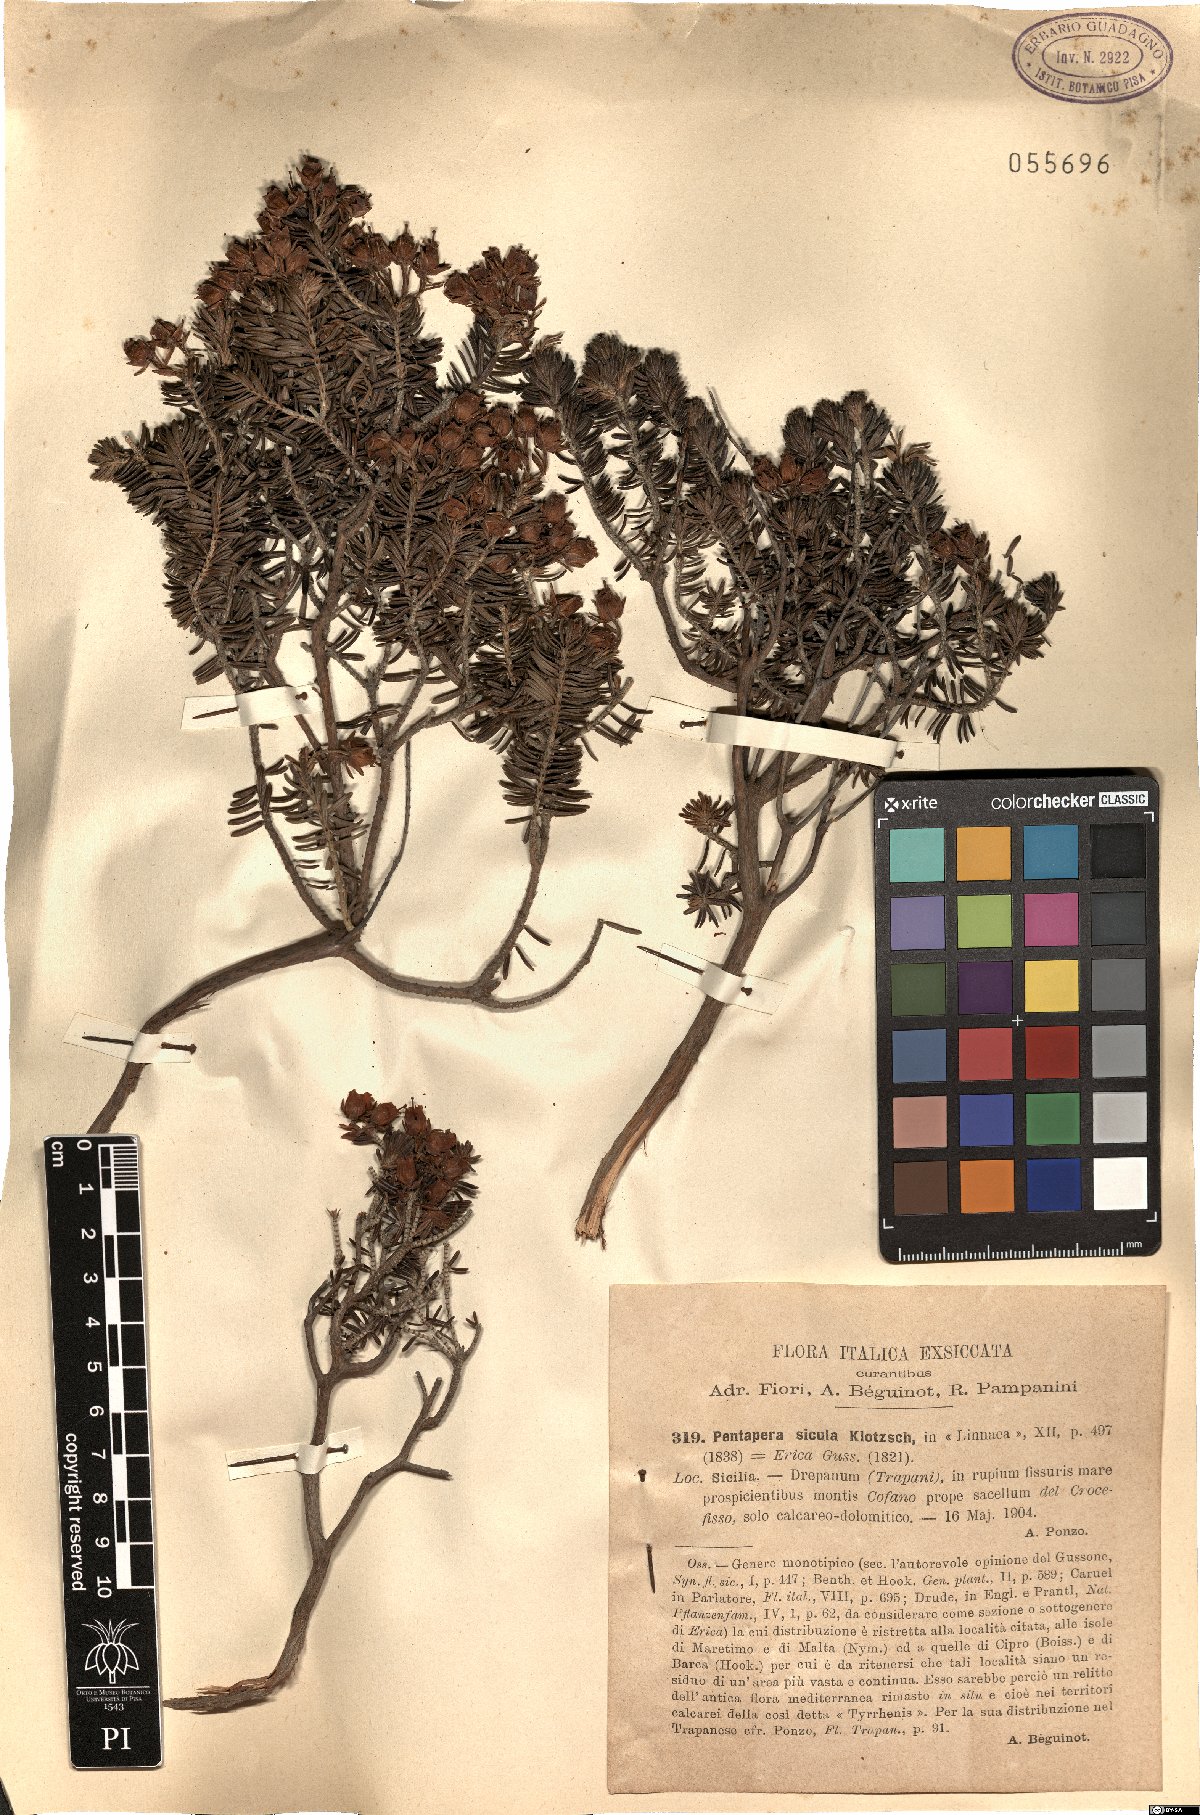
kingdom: Plantae
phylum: Tracheophyta
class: Magnoliopsida
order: Ericales
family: Ericaceae
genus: Erica
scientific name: Erica sicula
